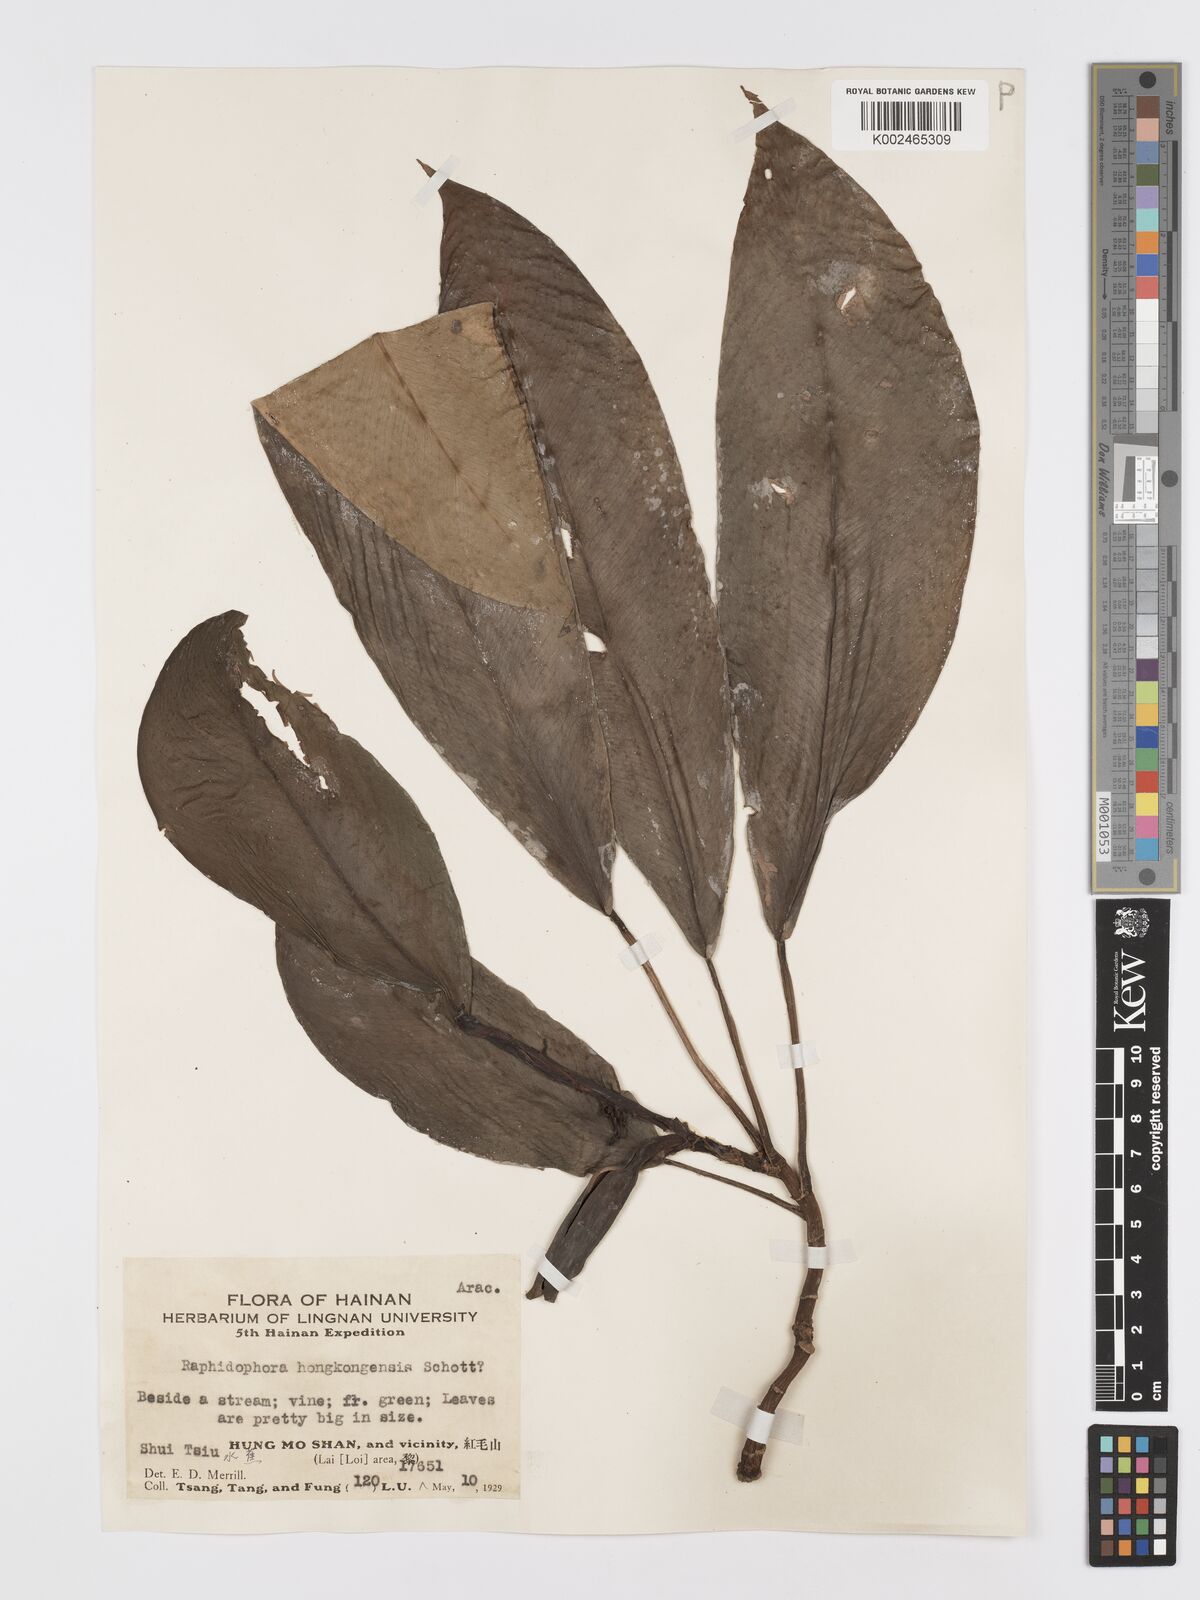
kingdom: Plantae
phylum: Tracheophyta
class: Liliopsida
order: Alismatales
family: Araceae
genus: Rhaphidophora
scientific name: Rhaphidophora
